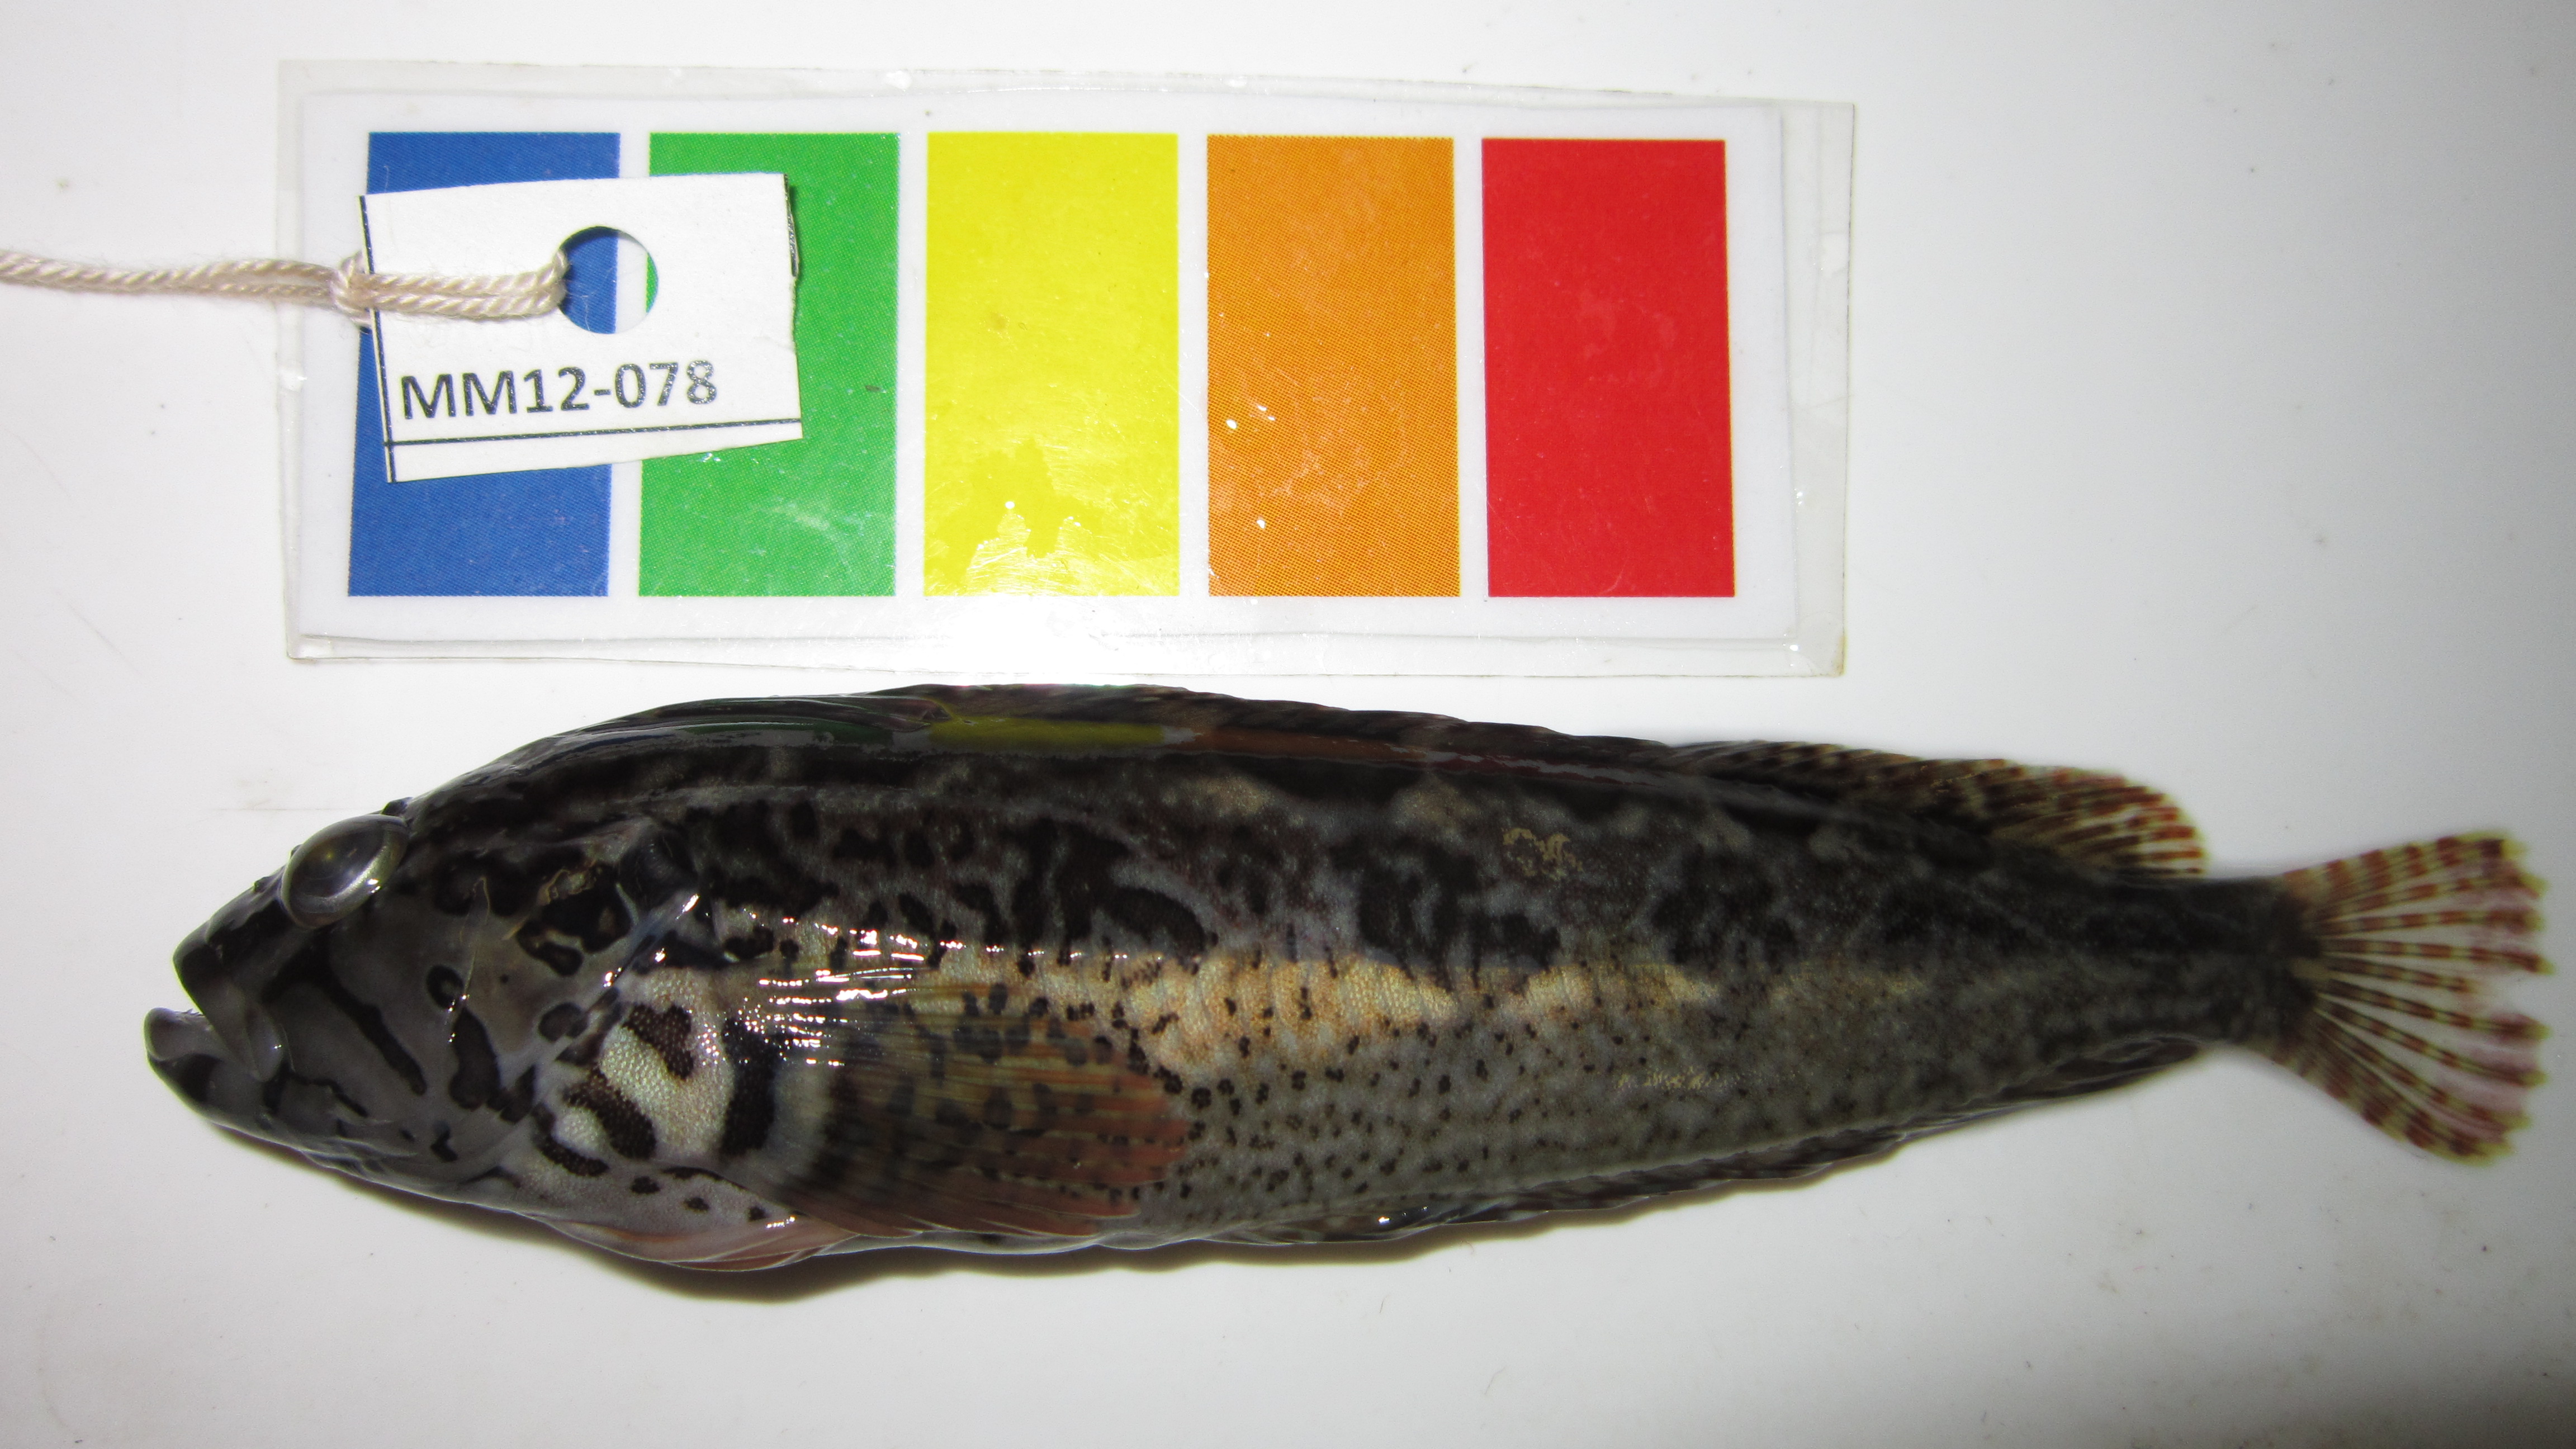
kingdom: Animalia
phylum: Chordata
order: Perciformes
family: Clinidae
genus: Clinus
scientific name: Clinus superciliosus
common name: Super klipfish
